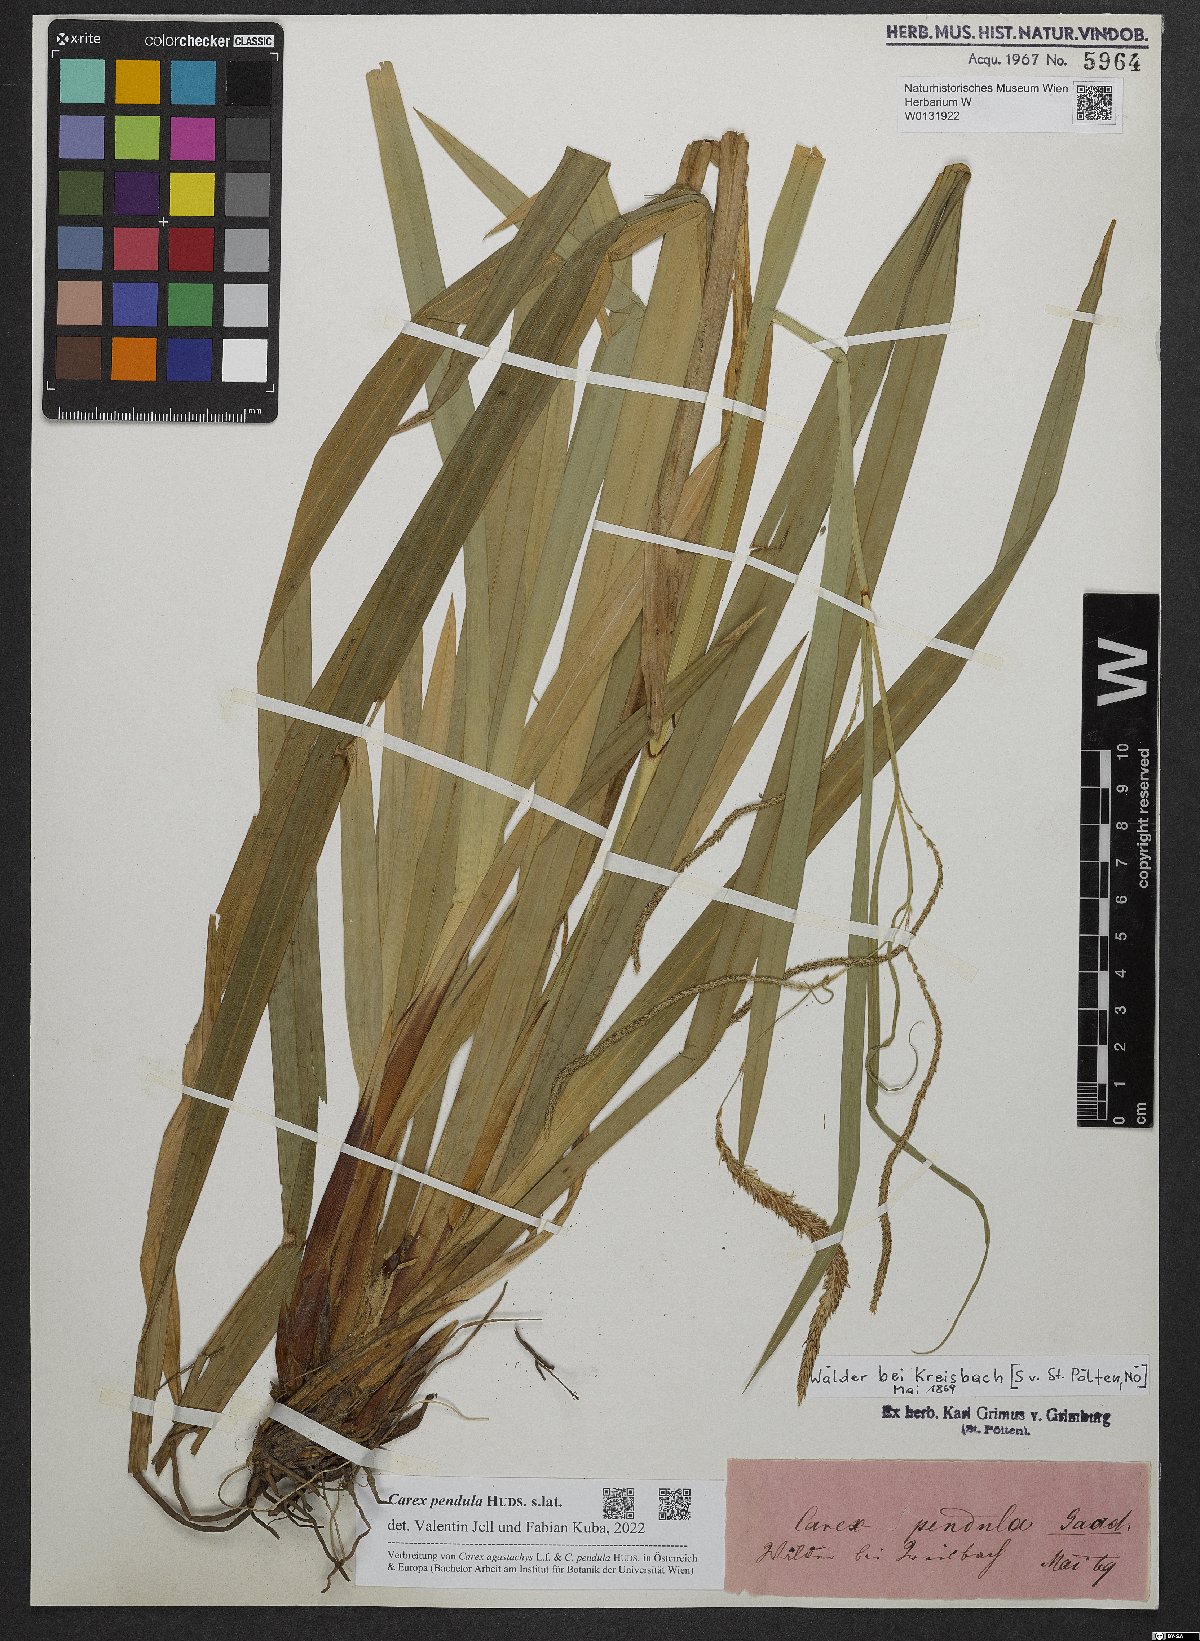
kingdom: Plantae
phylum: Tracheophyta
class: Liliopsida
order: Poales
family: Cyperaceae
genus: Carex
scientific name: Carex pendula
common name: Pendulous sedge
